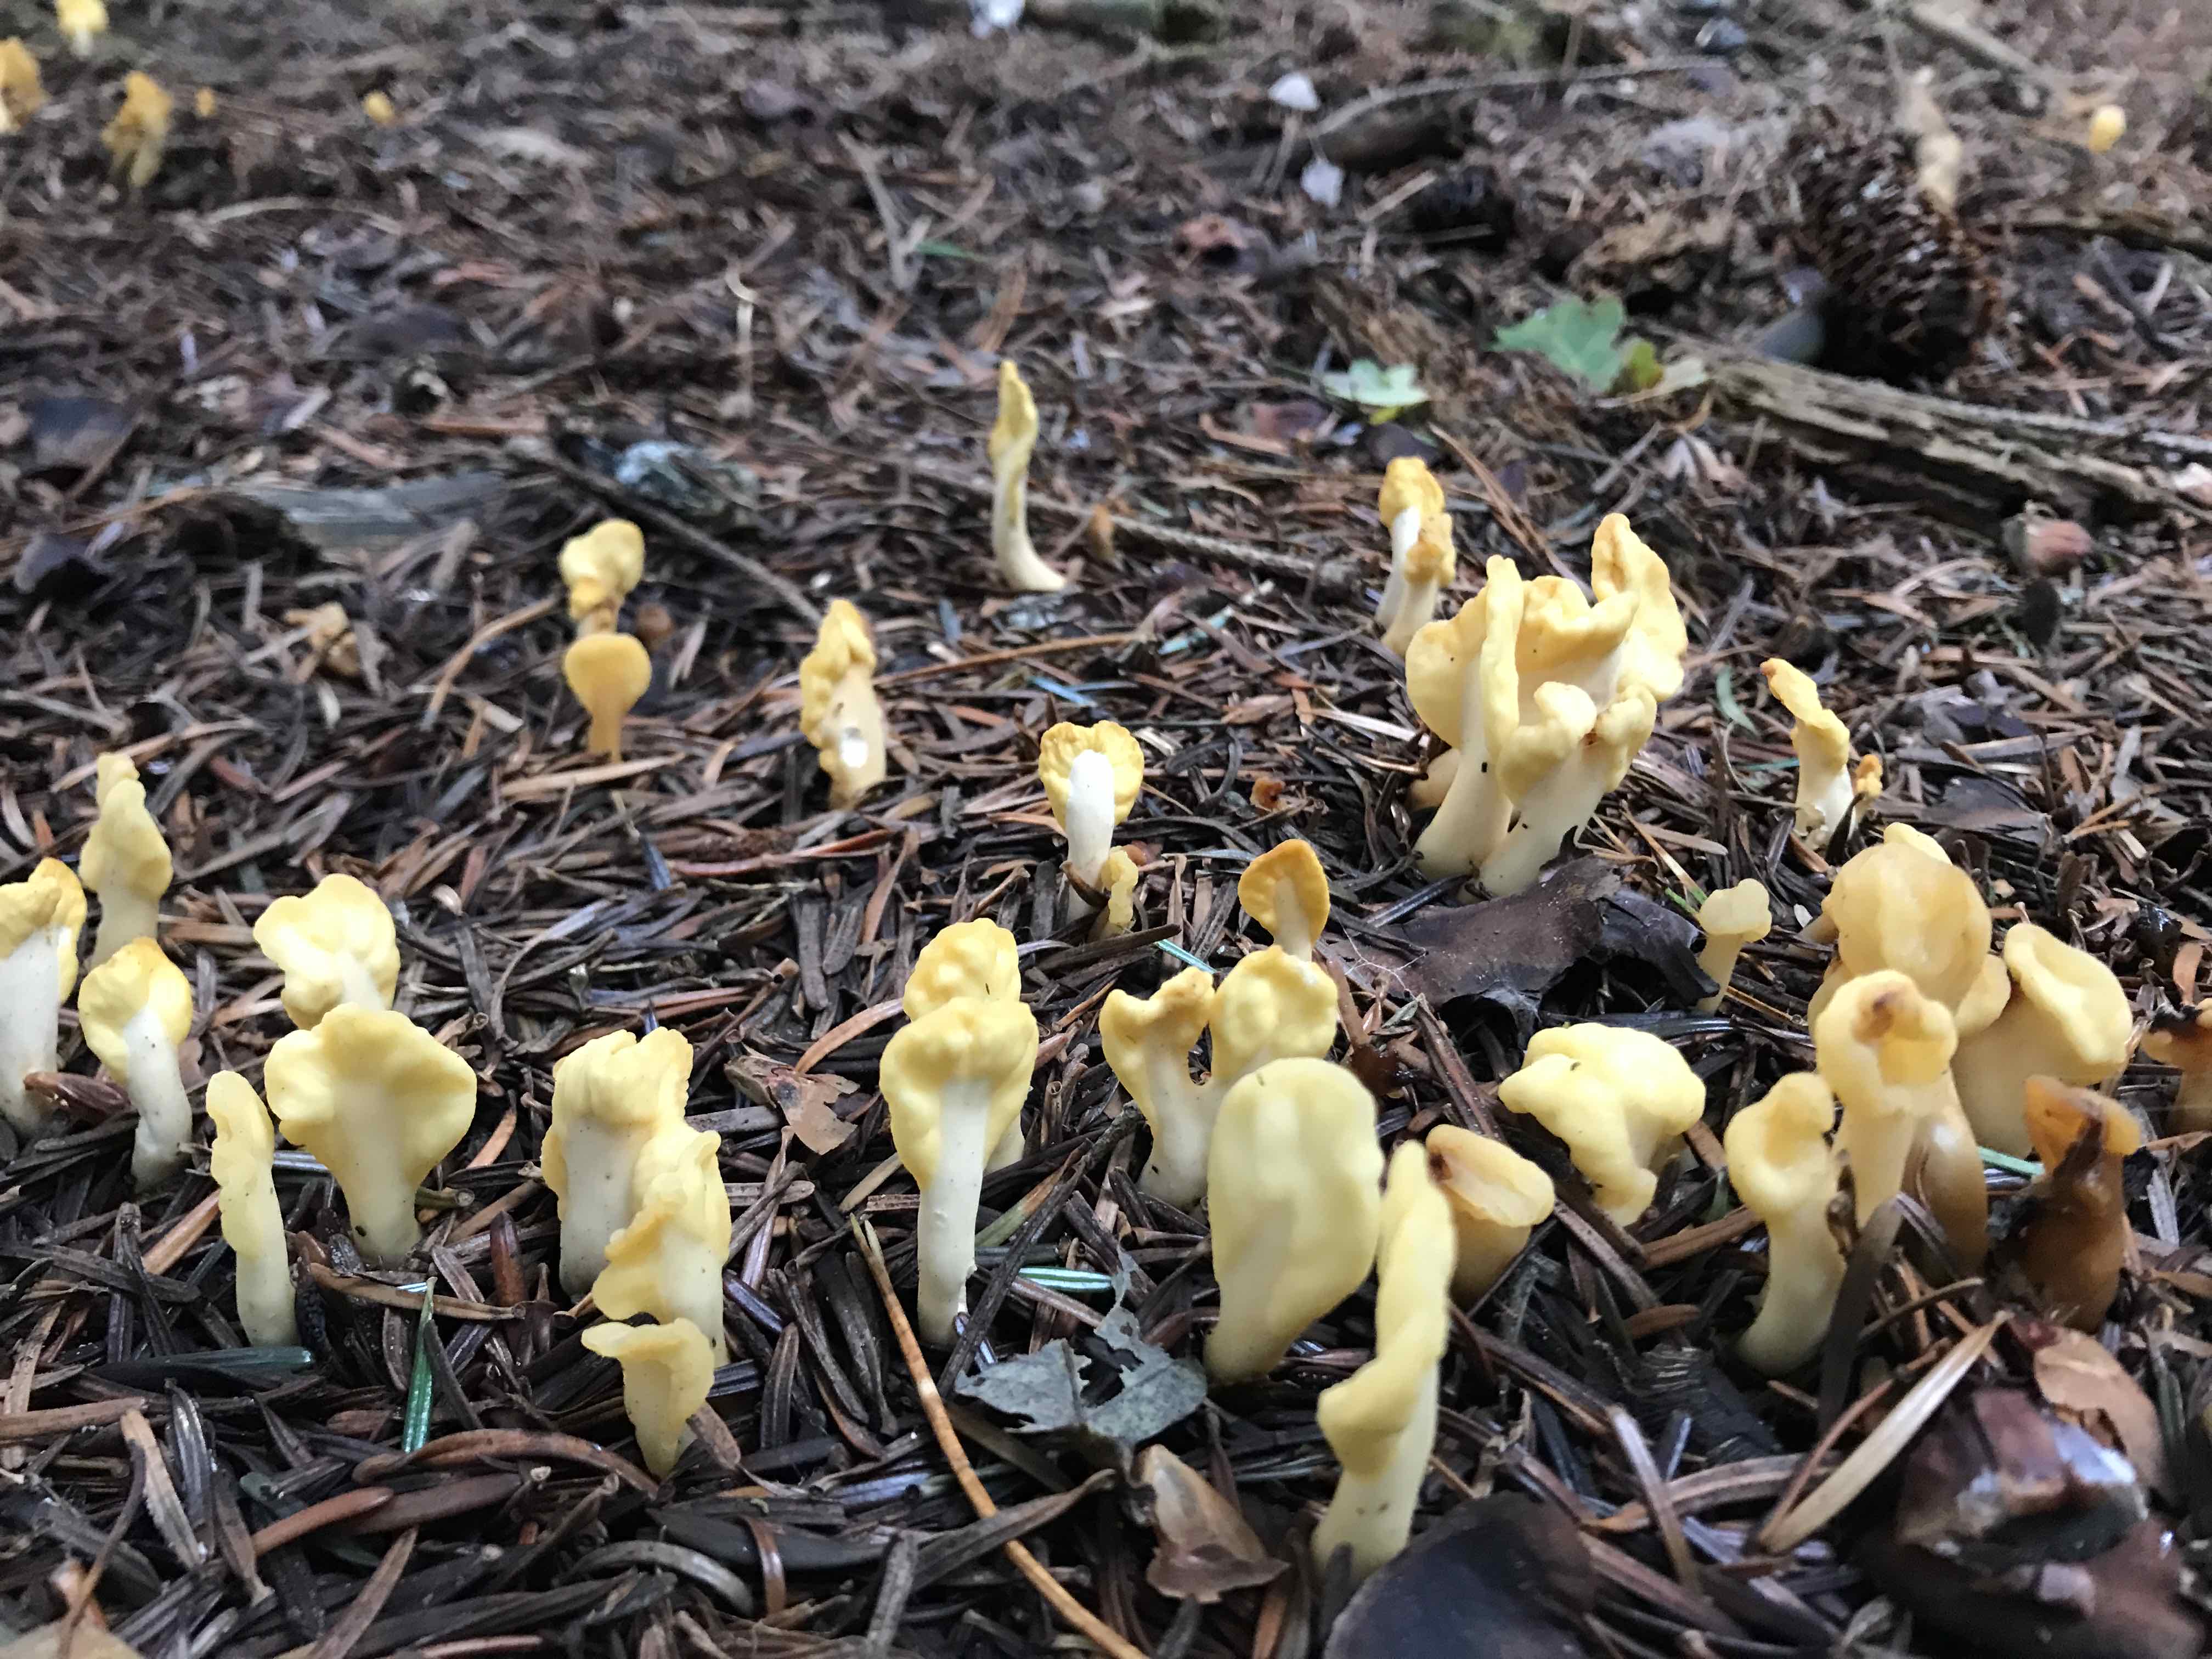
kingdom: Fungi
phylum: Ascomycota
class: Leotiomycetes
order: Rhytismatales
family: Cudoniaceae
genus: Spathularia
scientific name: Spathularia flavida
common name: gul spatelsvamp
